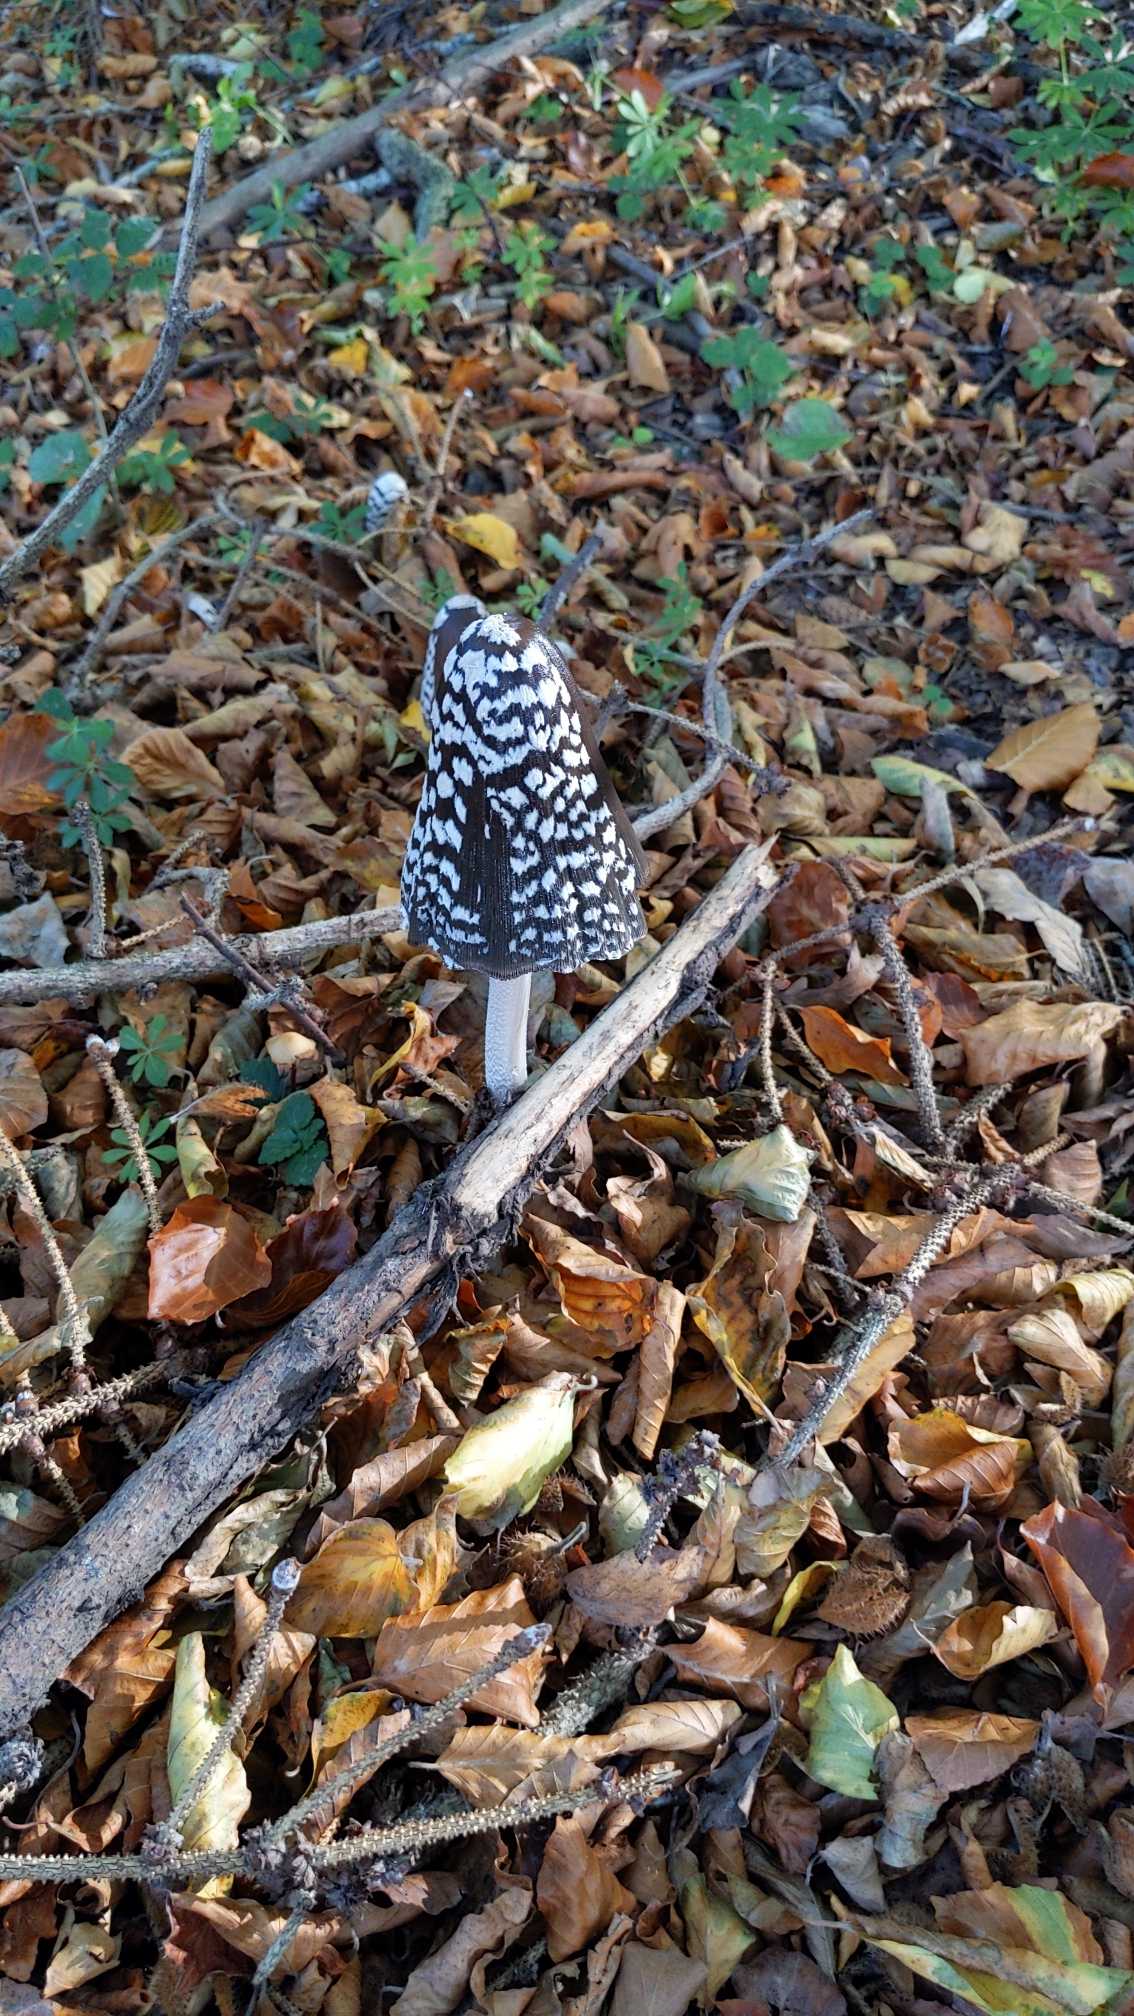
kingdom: Fungi
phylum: Basidiomycota
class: Agaricomycetes
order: Agaricales
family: Psathyrellaceae
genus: Coprinopsis
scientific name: Coprinopsis picacea
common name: Skade-blækhat
